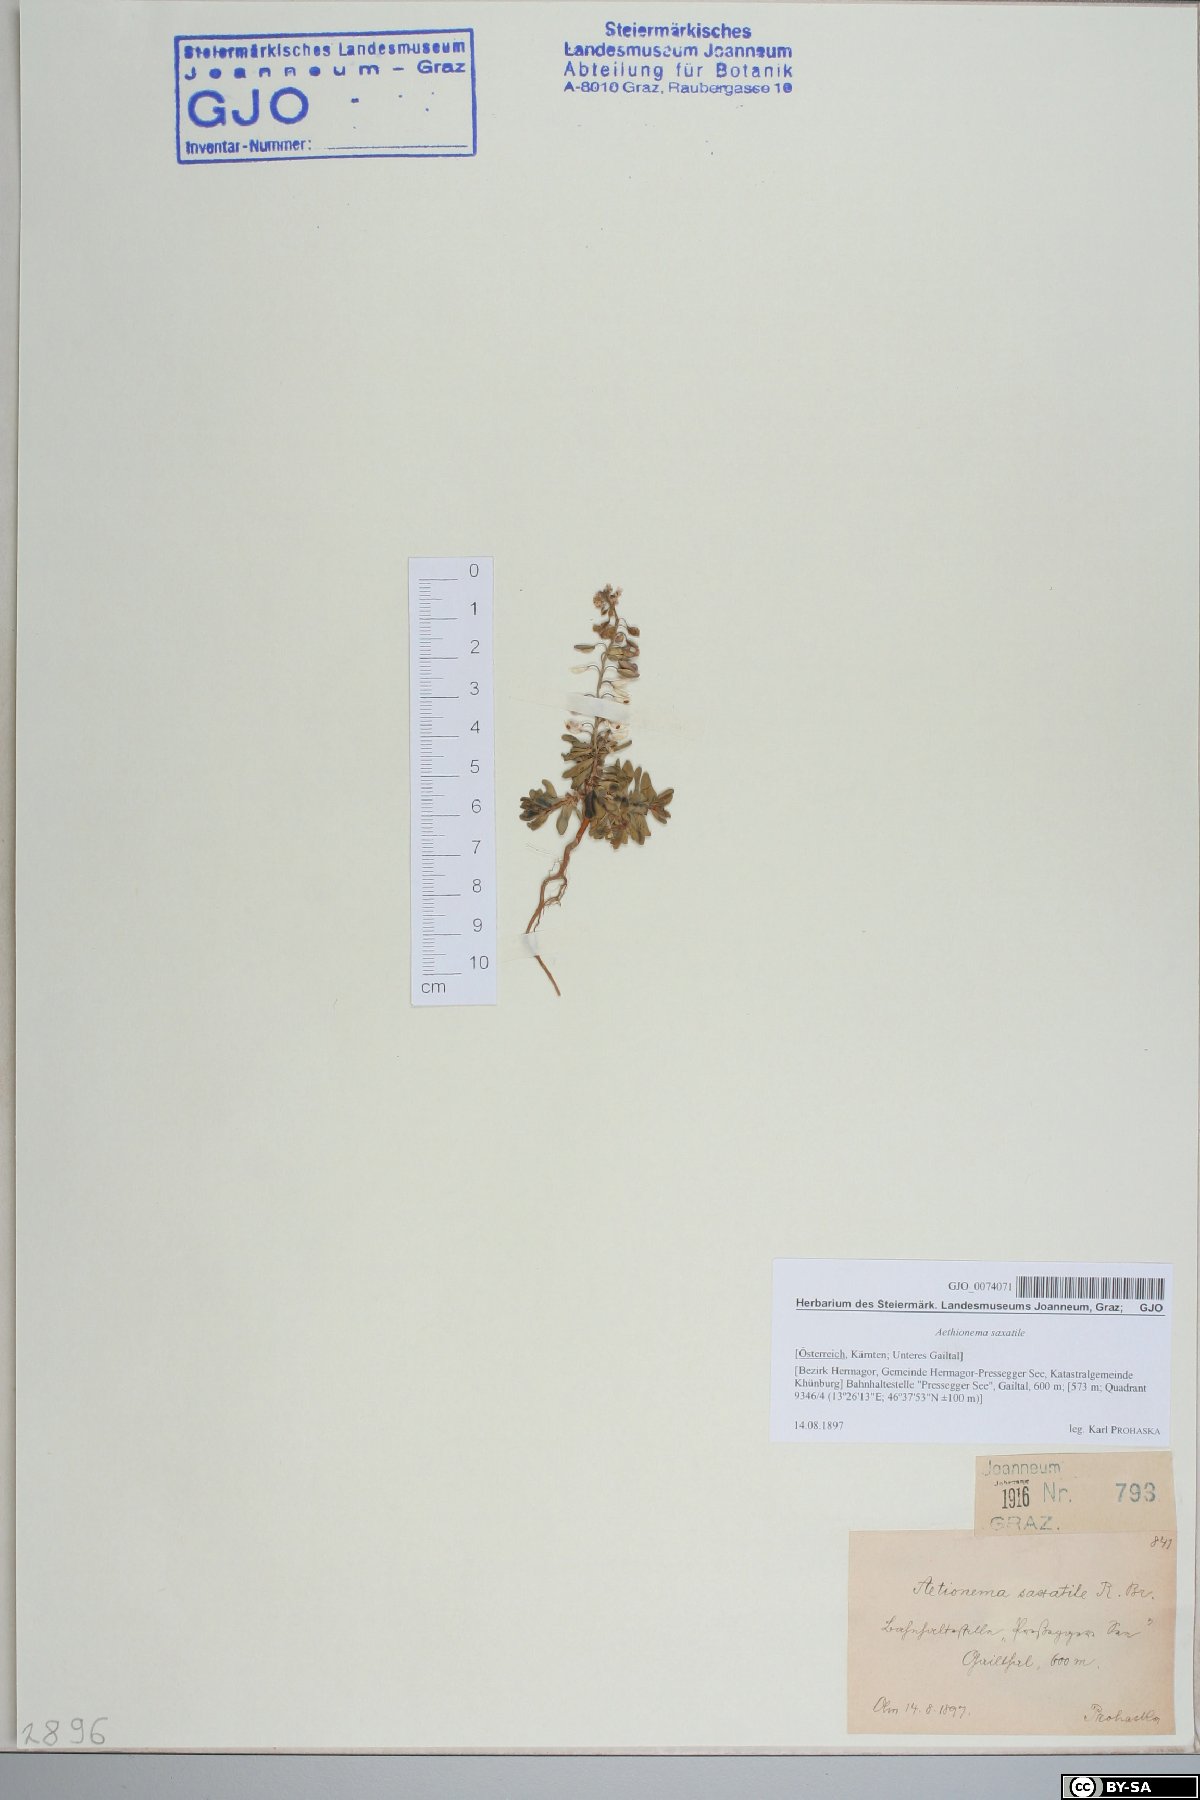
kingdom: Plantae
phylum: Tracheophyta
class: Magnoliopsida
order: Brassicales
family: Brassicaceae
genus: Aethionema
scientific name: Aethionema saxatile
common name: Burnt candytuft
